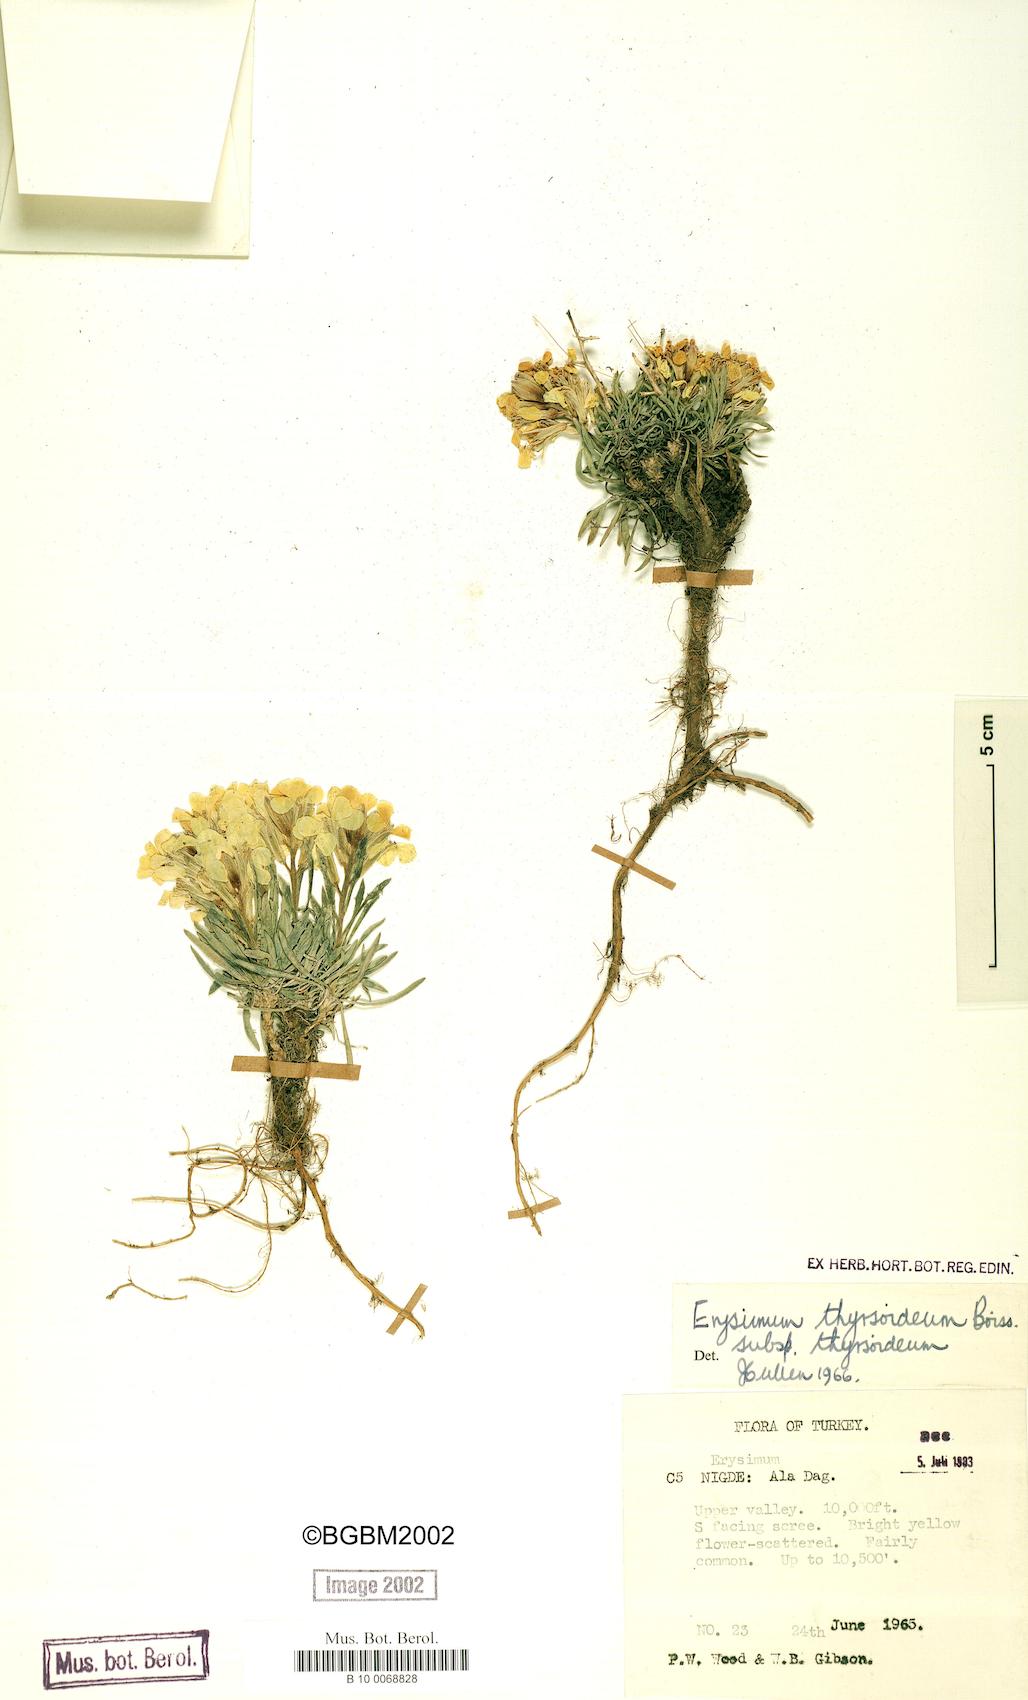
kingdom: Plantae
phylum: Tracheophyta
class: Magnoliopsida
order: Brassicales
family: Brassicaceae
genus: Erysimum
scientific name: Erysimum pycnophyllum
